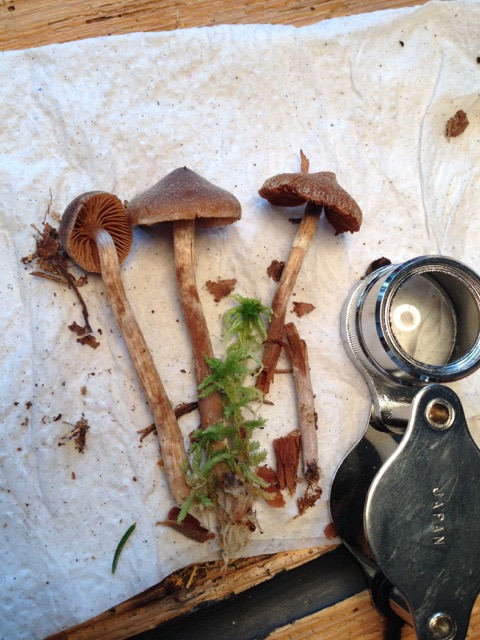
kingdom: Fungi
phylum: Basidiomycota
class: Agaricomycetes
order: Agaricales
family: Cortinariaceae
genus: Cortinarius
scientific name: Cortinarius
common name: pelargonie-slørhat
